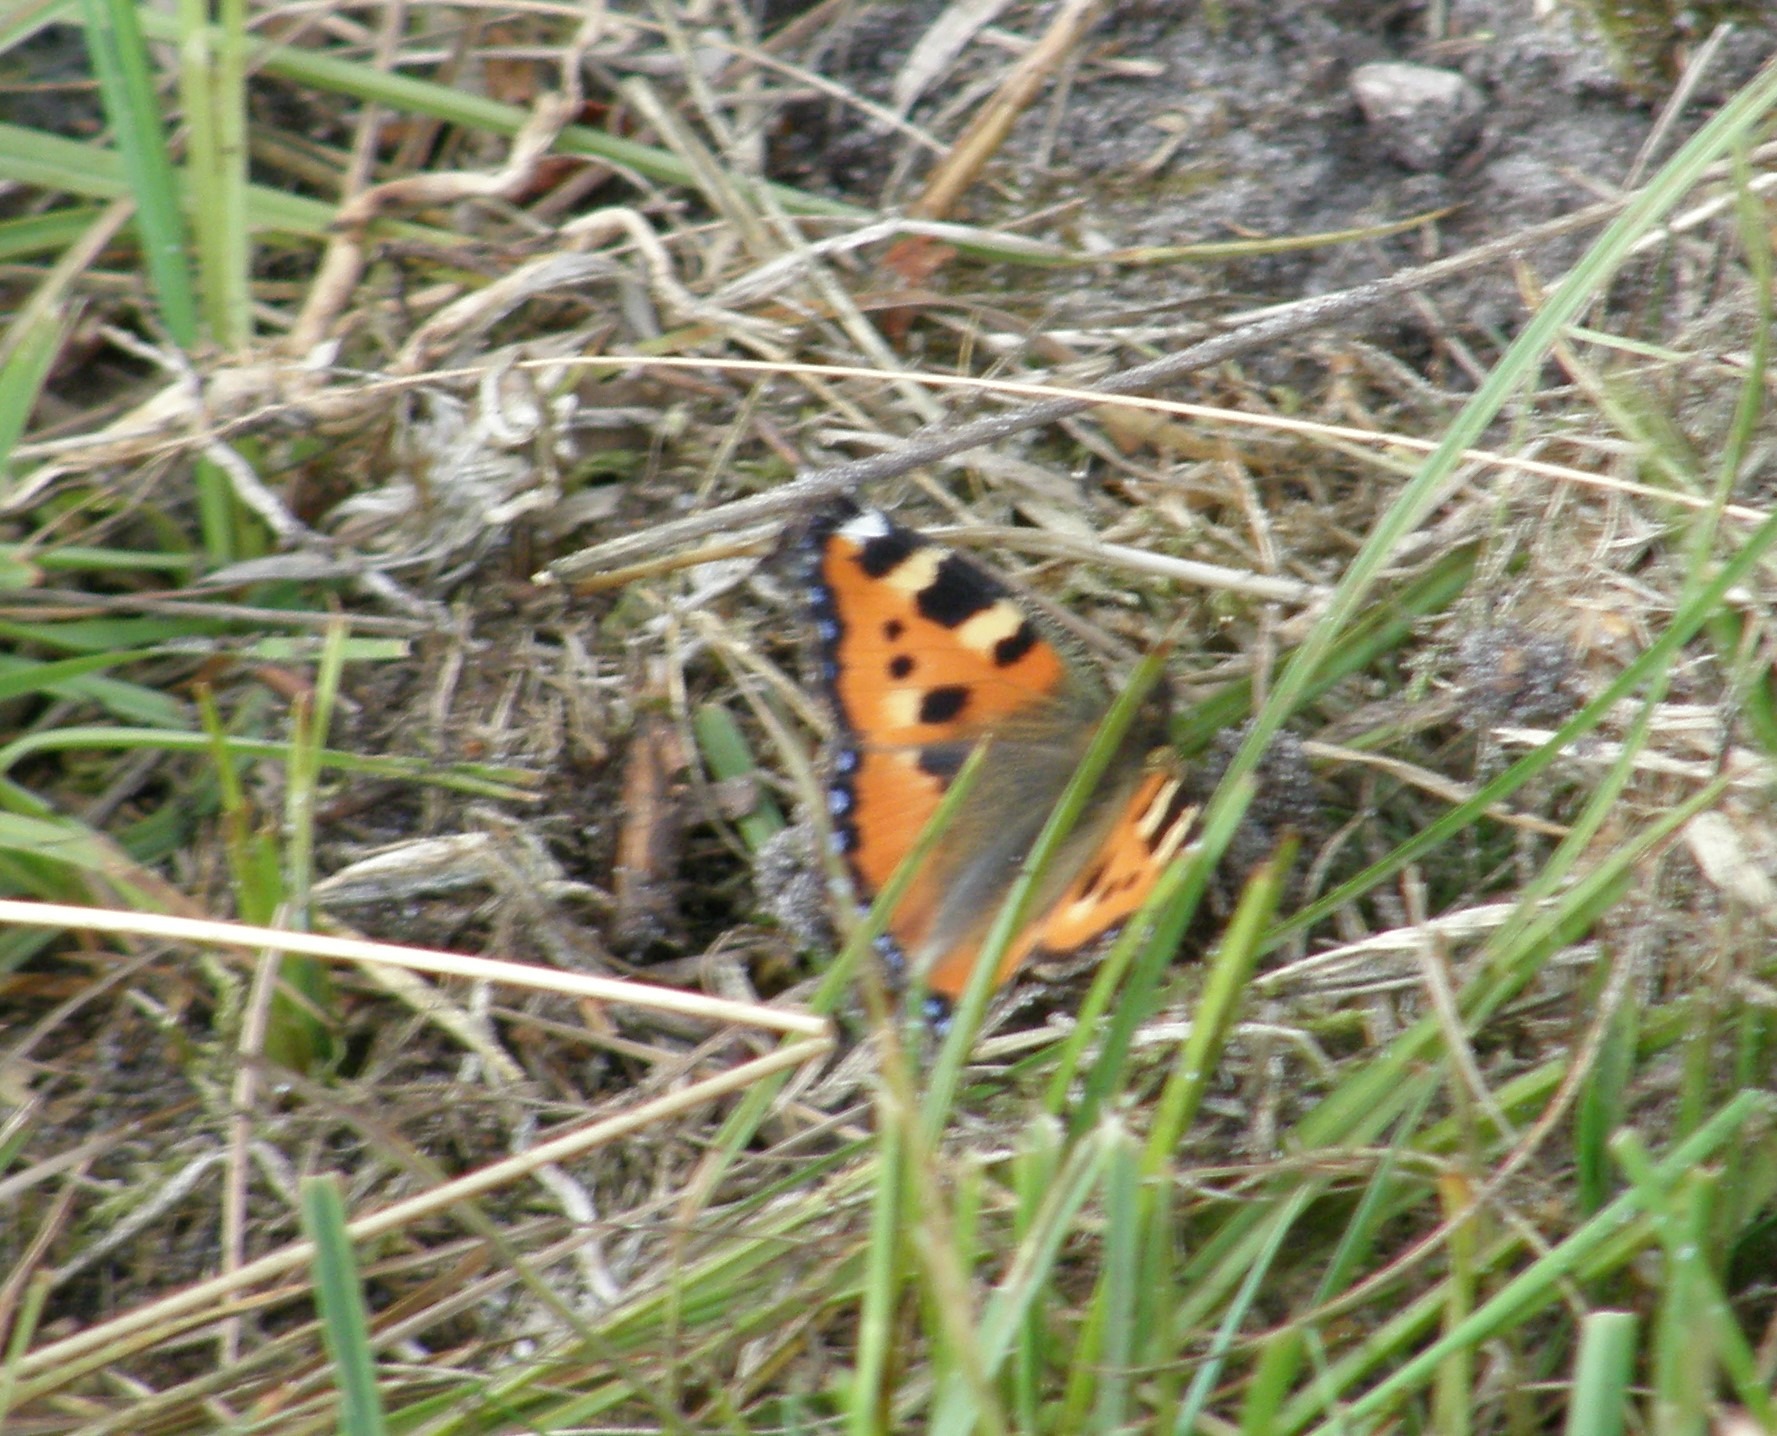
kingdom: Animalia
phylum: Arthropoda
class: Insecta
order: Lepidoptera
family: Nymphalidae
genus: Aglais
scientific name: Aglais urticae
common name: Nældens takvinge
